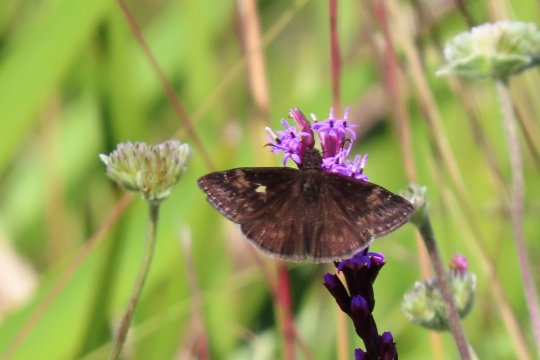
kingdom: Animalia
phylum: Arthropoda
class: Insecta
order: Lepidoptera
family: Hesperiidae
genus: Erynnis
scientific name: Erynnis zarucco
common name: Zarucco Duskywing
